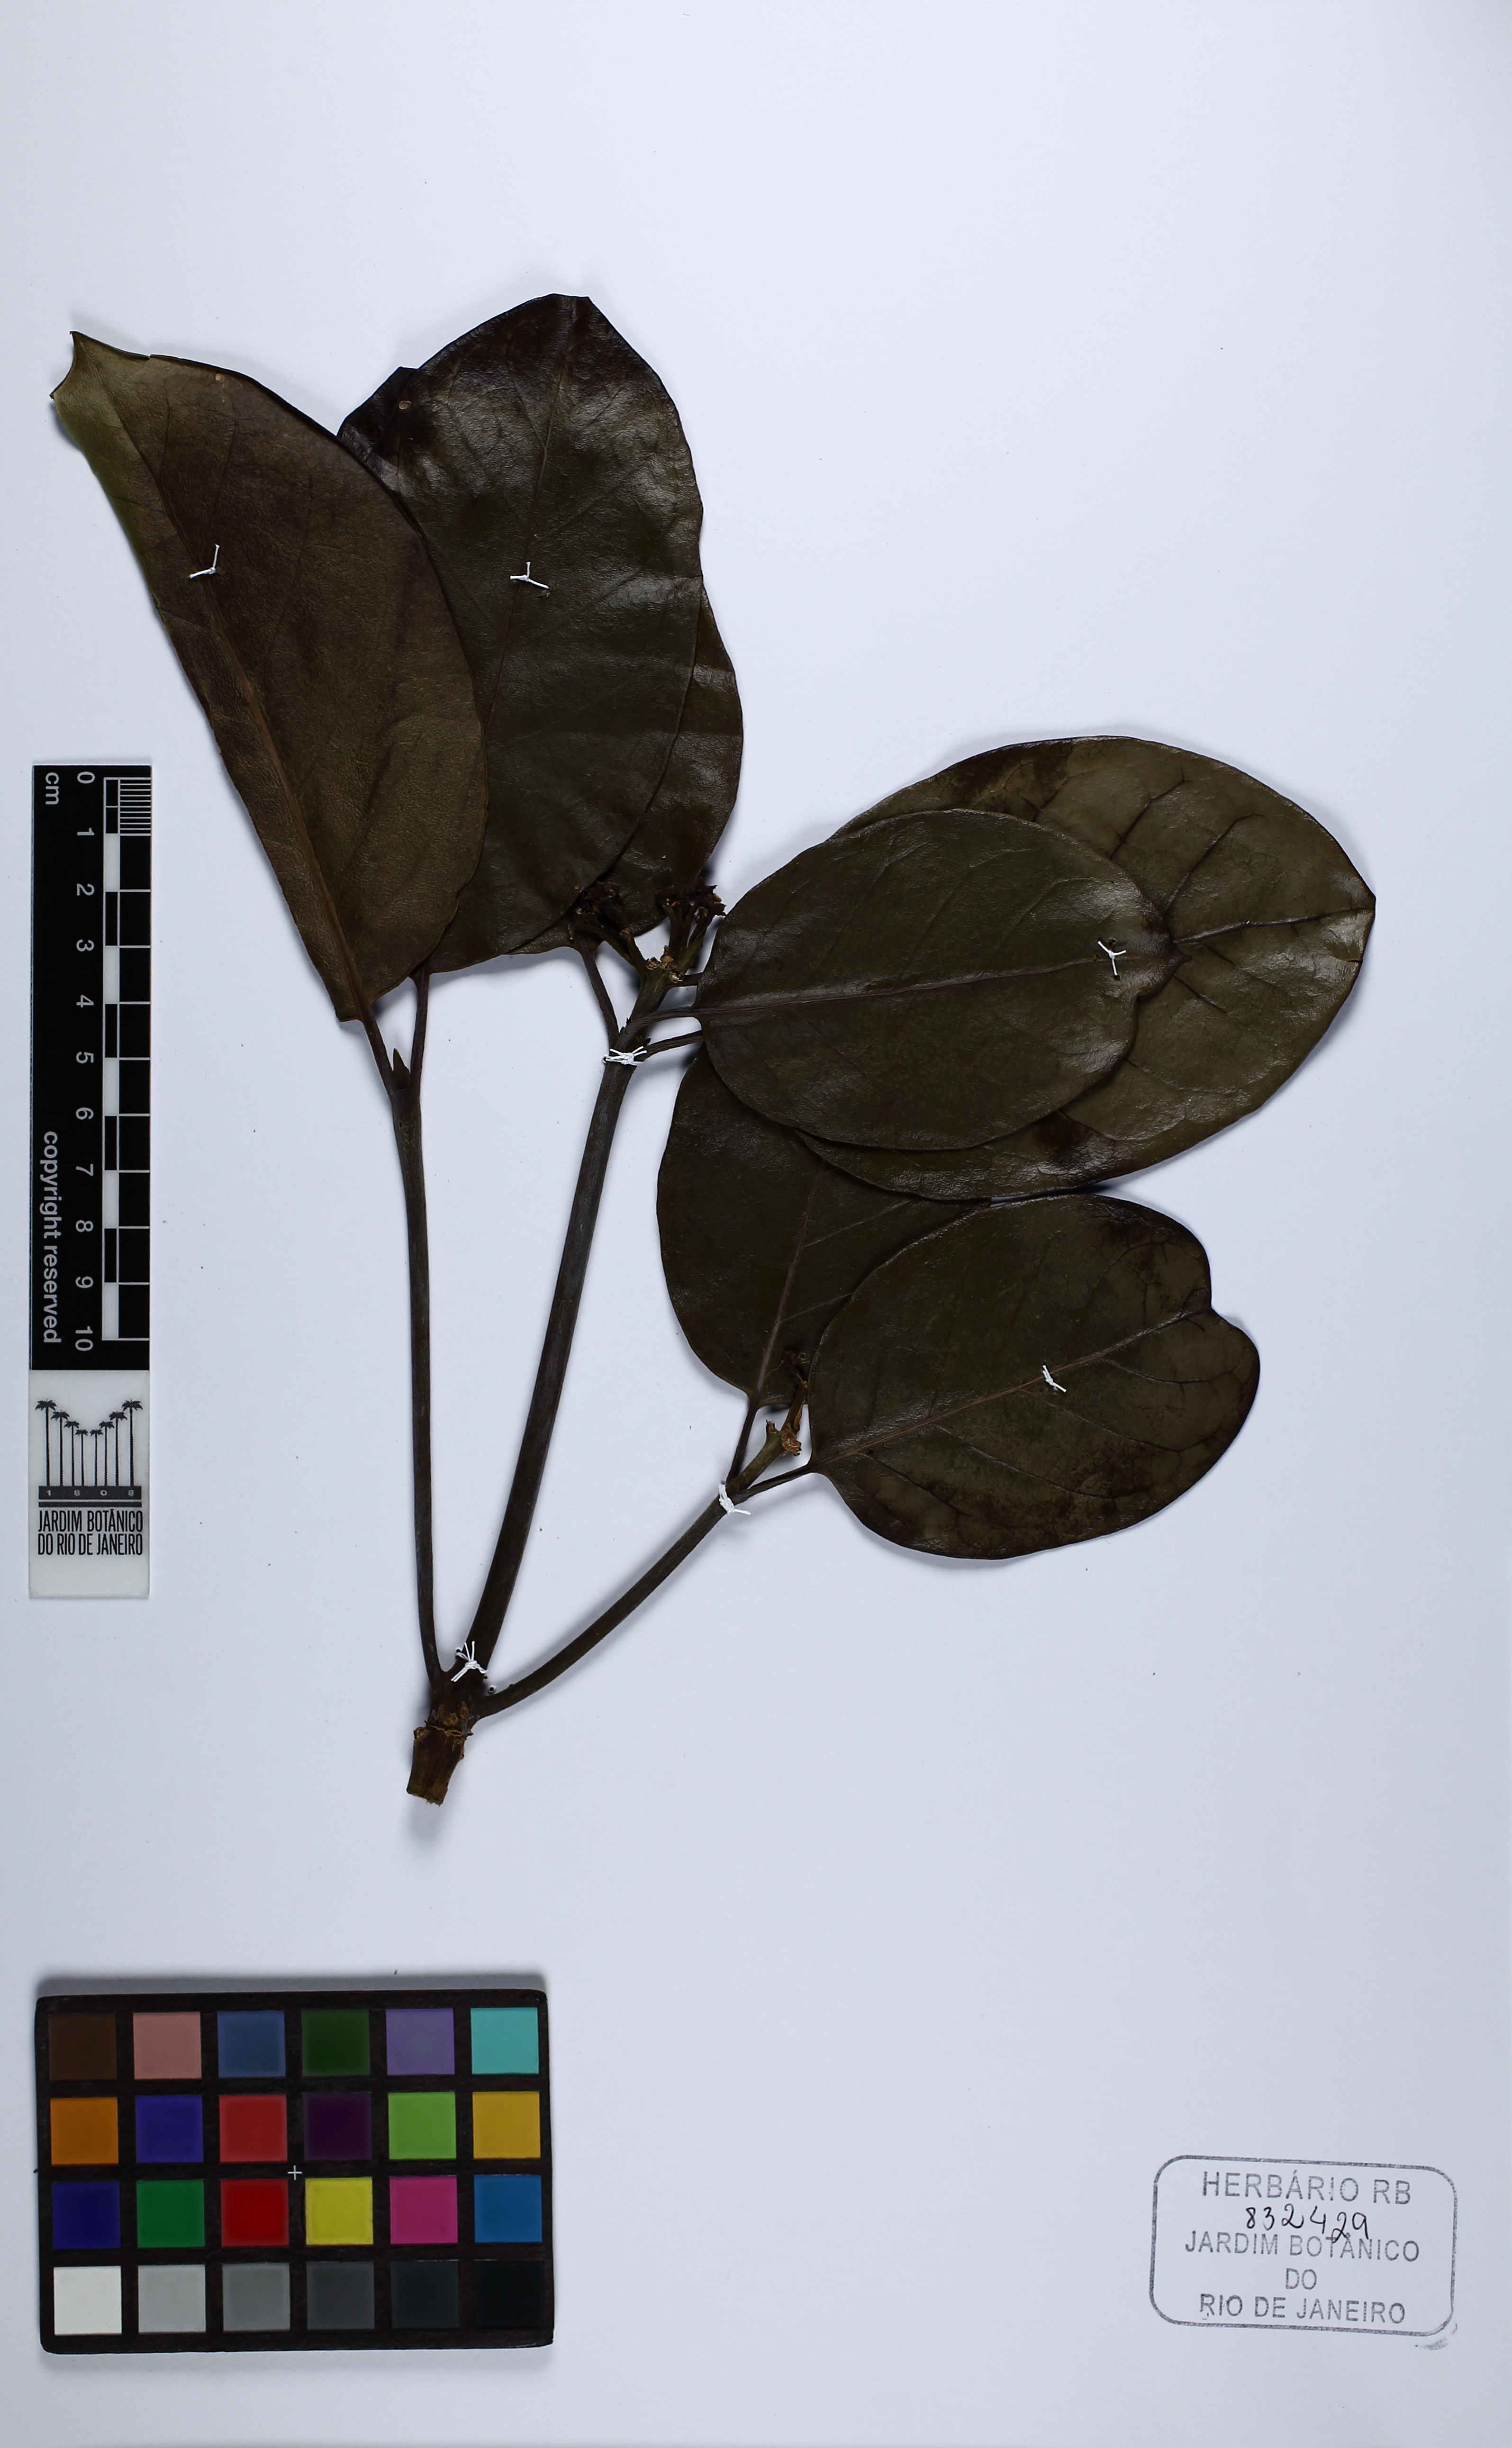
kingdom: Plantae
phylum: Tracheophyta
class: Magnoliopsida
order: Gentianales
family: Rubiaceae
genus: Posoqueria
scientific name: Posoqueria longiflora
